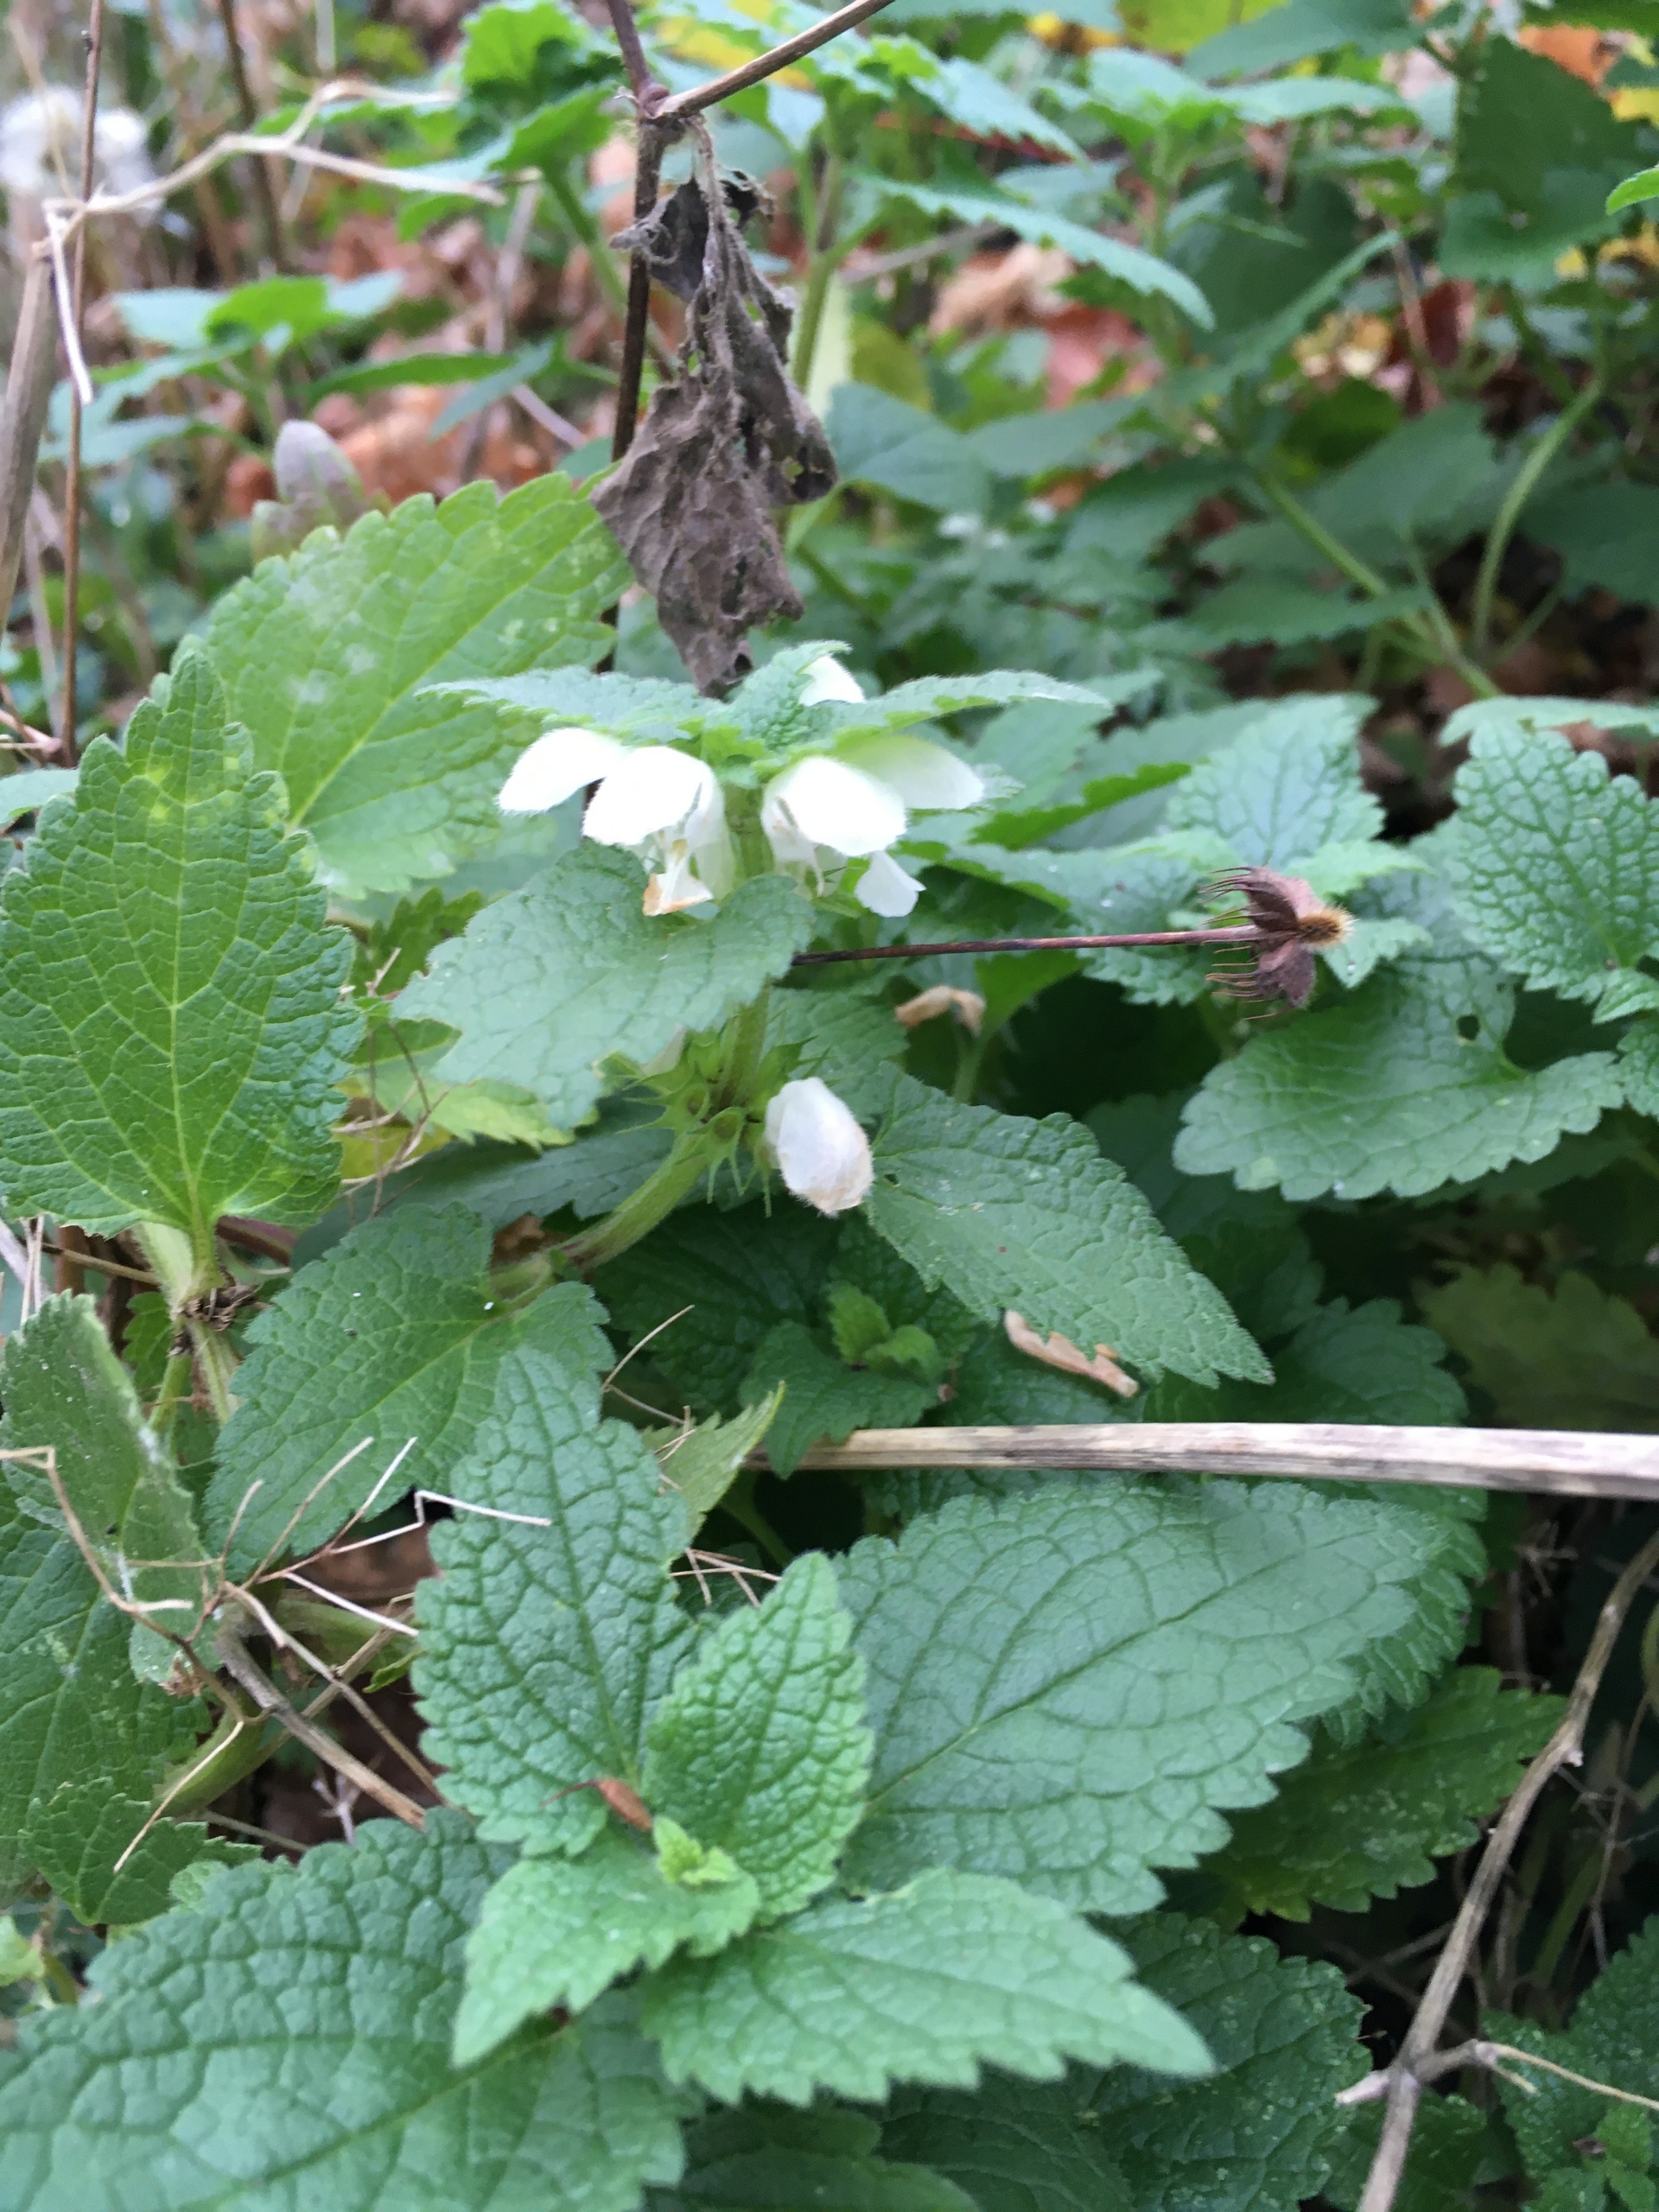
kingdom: Plantae
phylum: Tracheophyta
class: Magnoliopsida
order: Lamiales
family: Lamiaceae
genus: Lamium
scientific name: Lamium album
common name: Døvnælde
